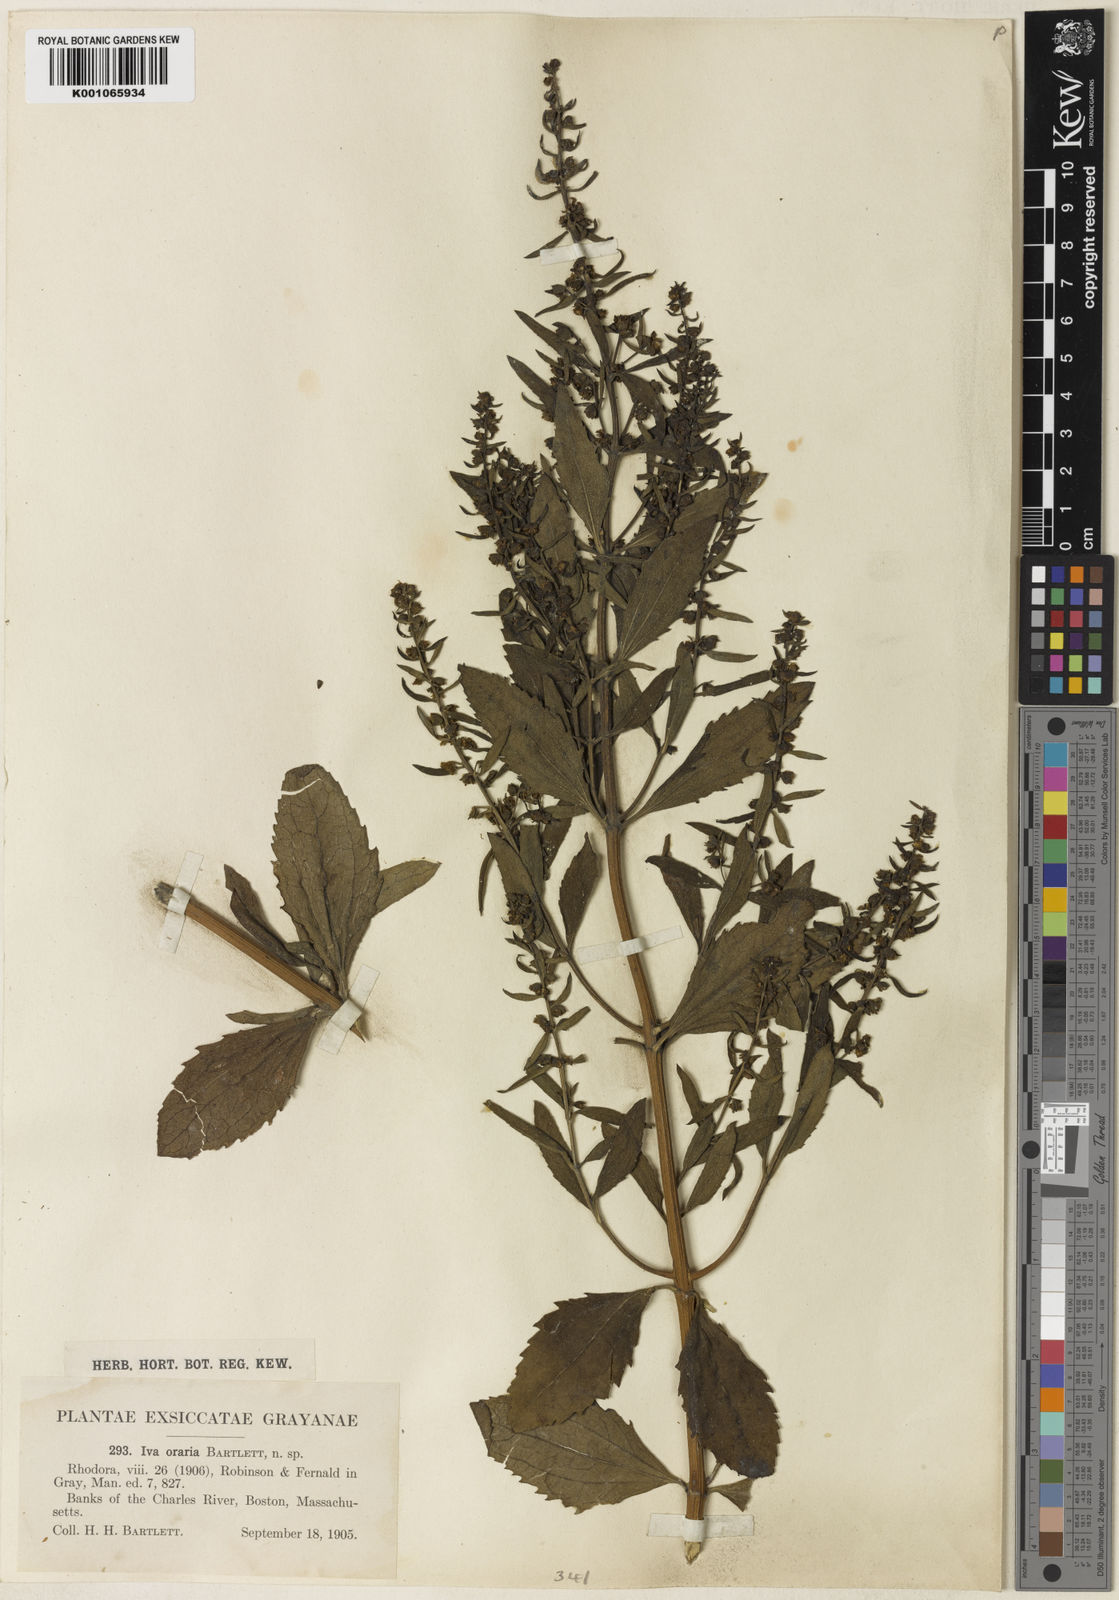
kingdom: Plantae
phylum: Tracheophyta
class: Magnoliopsida
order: Asterales
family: Asteraceae
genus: Iva
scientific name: Iva frutescens
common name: Big-leaved marsh-elder
